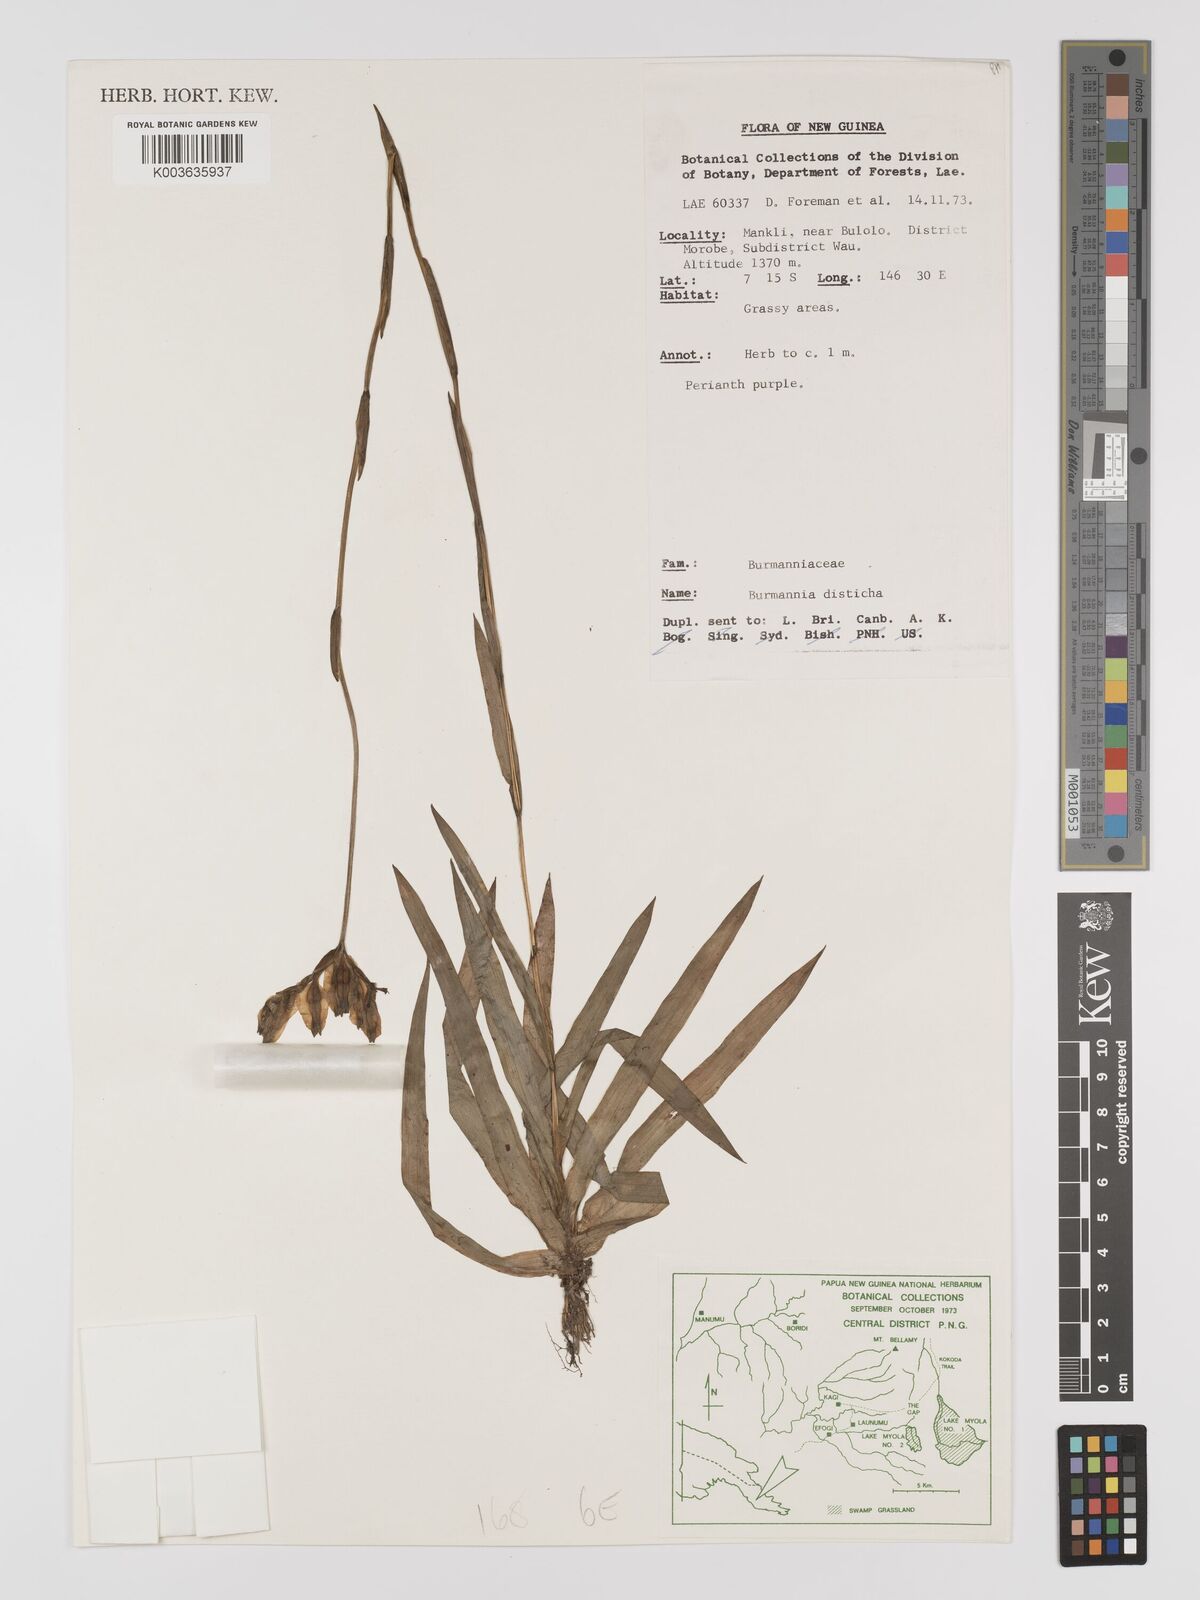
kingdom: Plantae
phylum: Tracheophyta
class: Liliopsida
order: Dioscoreales
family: Burmanniaceae
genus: Burmannia
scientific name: Burmannia disticha
